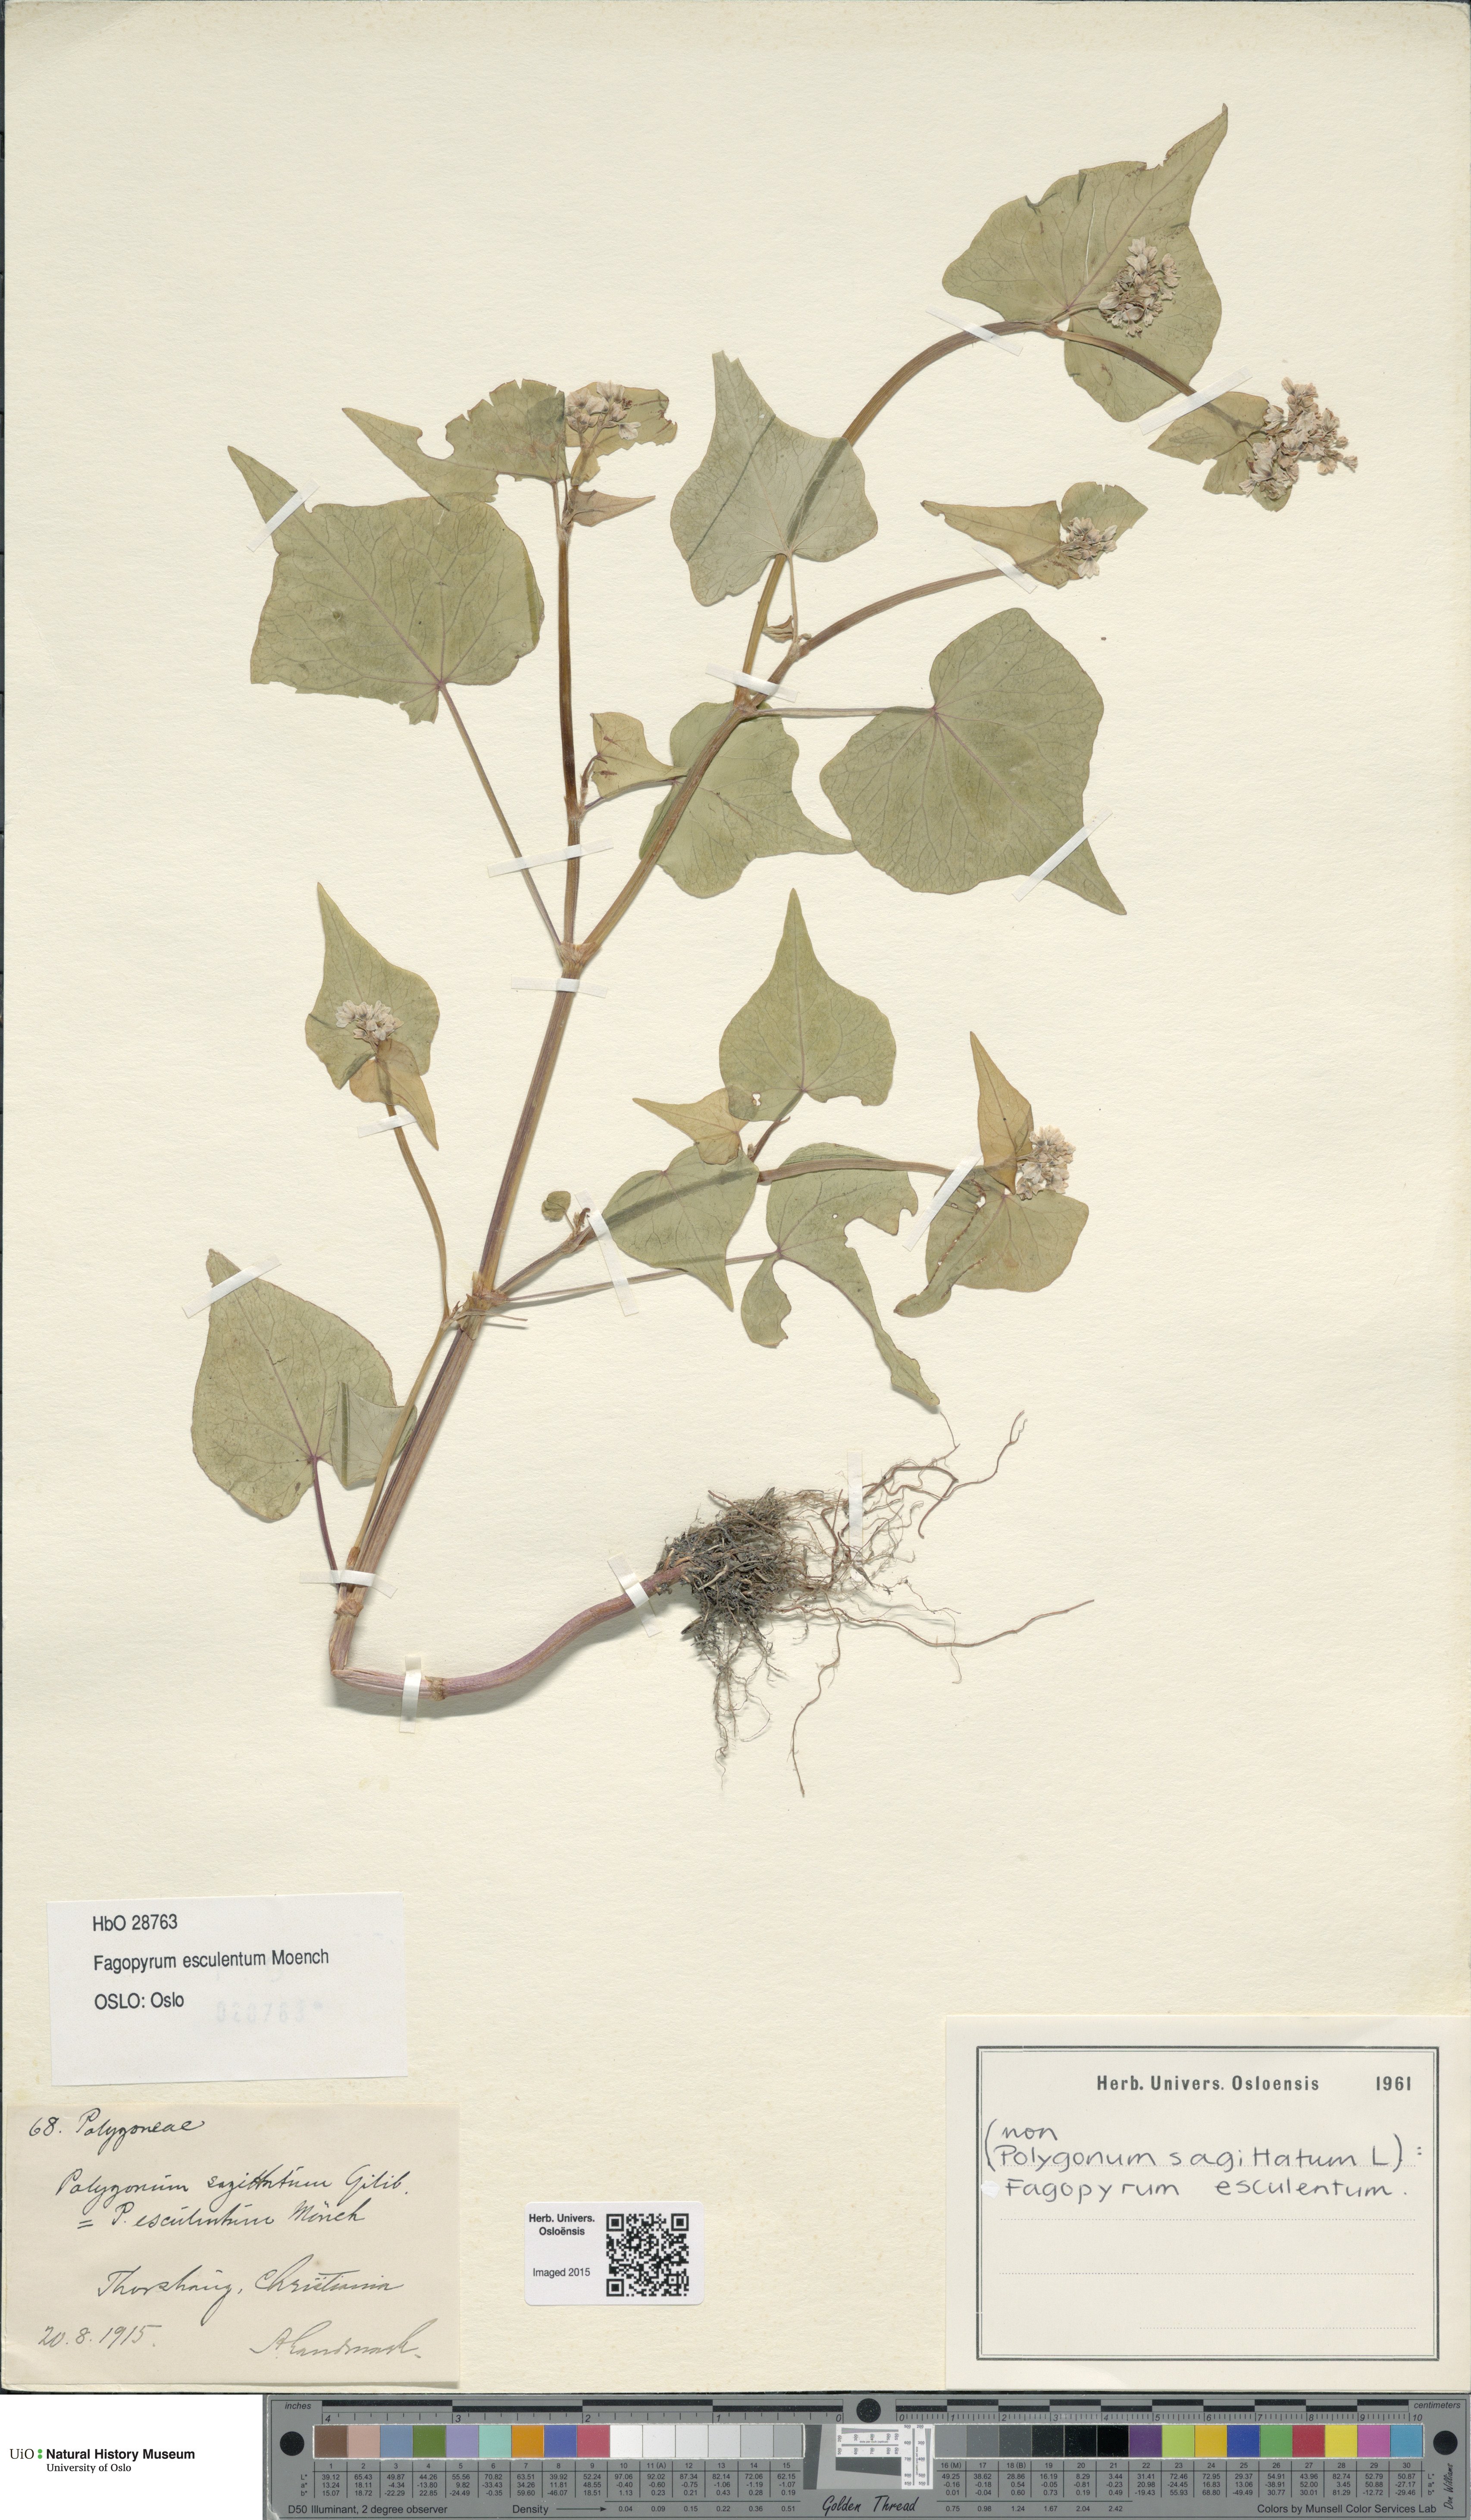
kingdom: Plantae
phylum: Tracheophyta
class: Magnoliopsida
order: Caryophyllales
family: Polygonaceae
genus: Fagopyrum
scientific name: Fagopyrum esculentum
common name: Buckwheat
